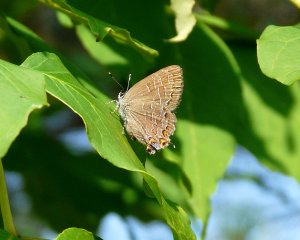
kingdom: Animalia
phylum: Arthropoda
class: Insecta
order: Lepidoptera
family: Lycaenidae
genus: Satyrium
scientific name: Satyrium liparops
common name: Striped Hairstreak
